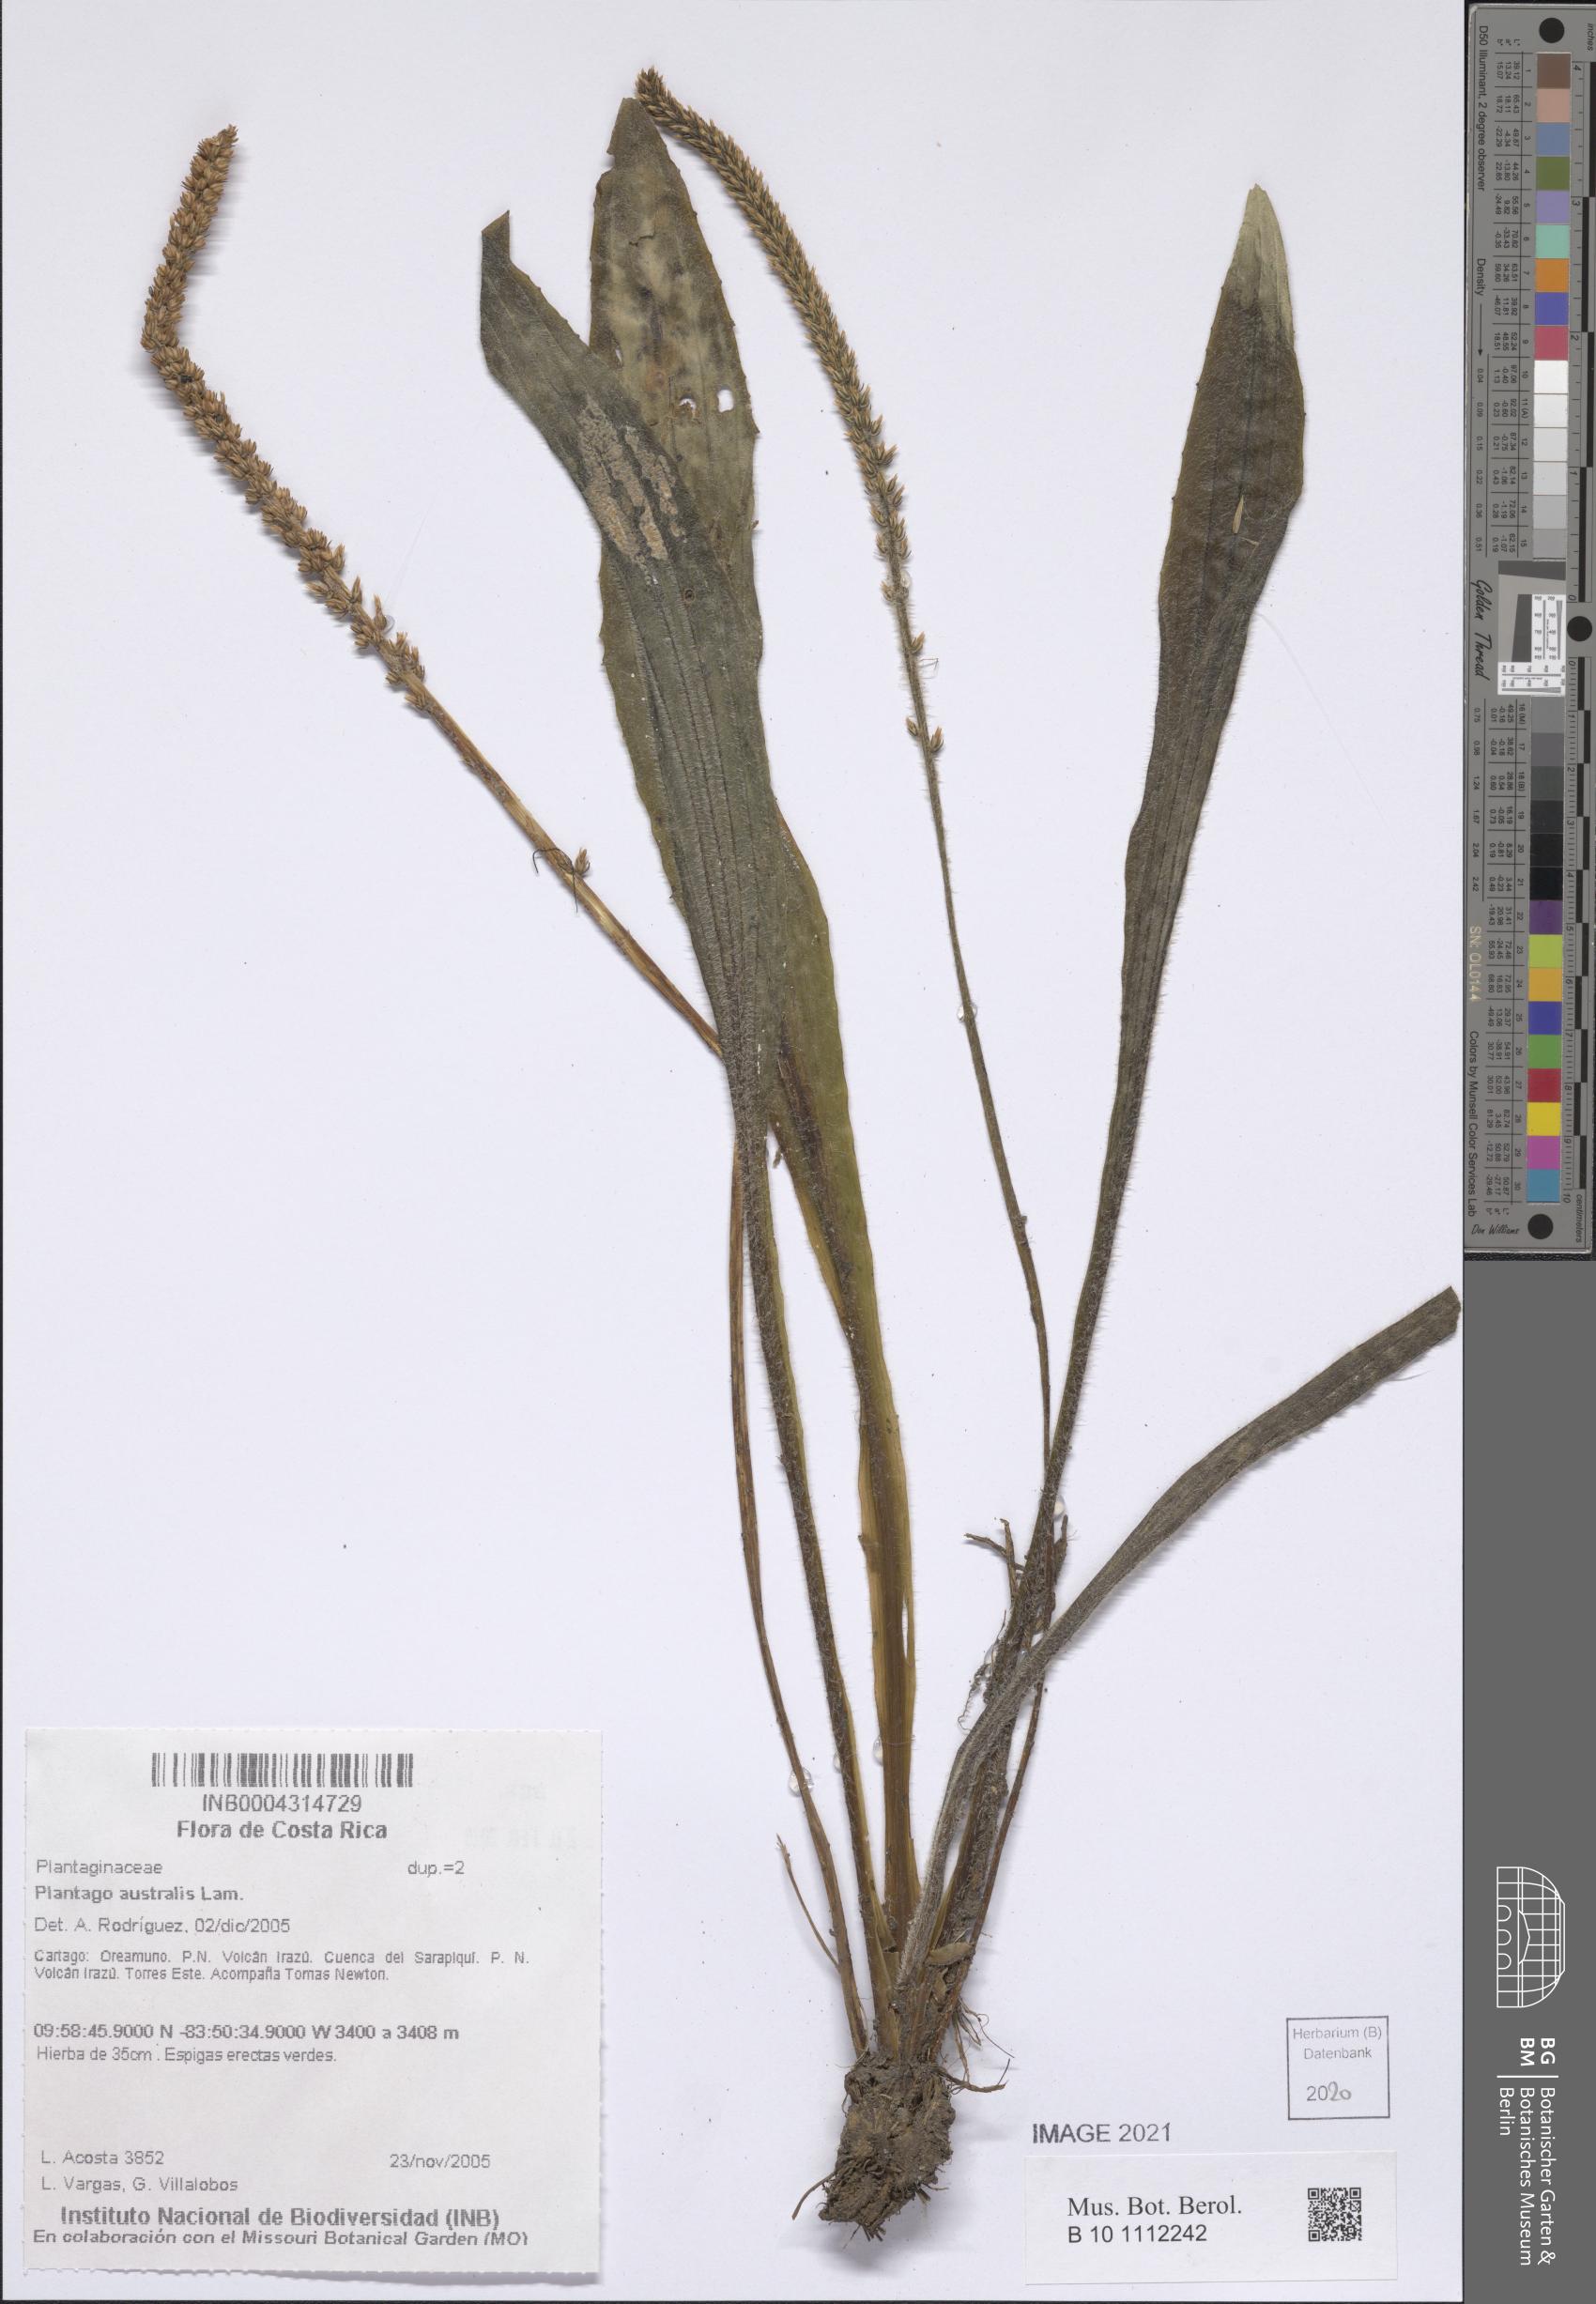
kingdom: Plantae
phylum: Tracheophyta
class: Magnoliopsida
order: Lamiales
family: Plantaginaceae
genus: Plantago
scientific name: Plantago australis
